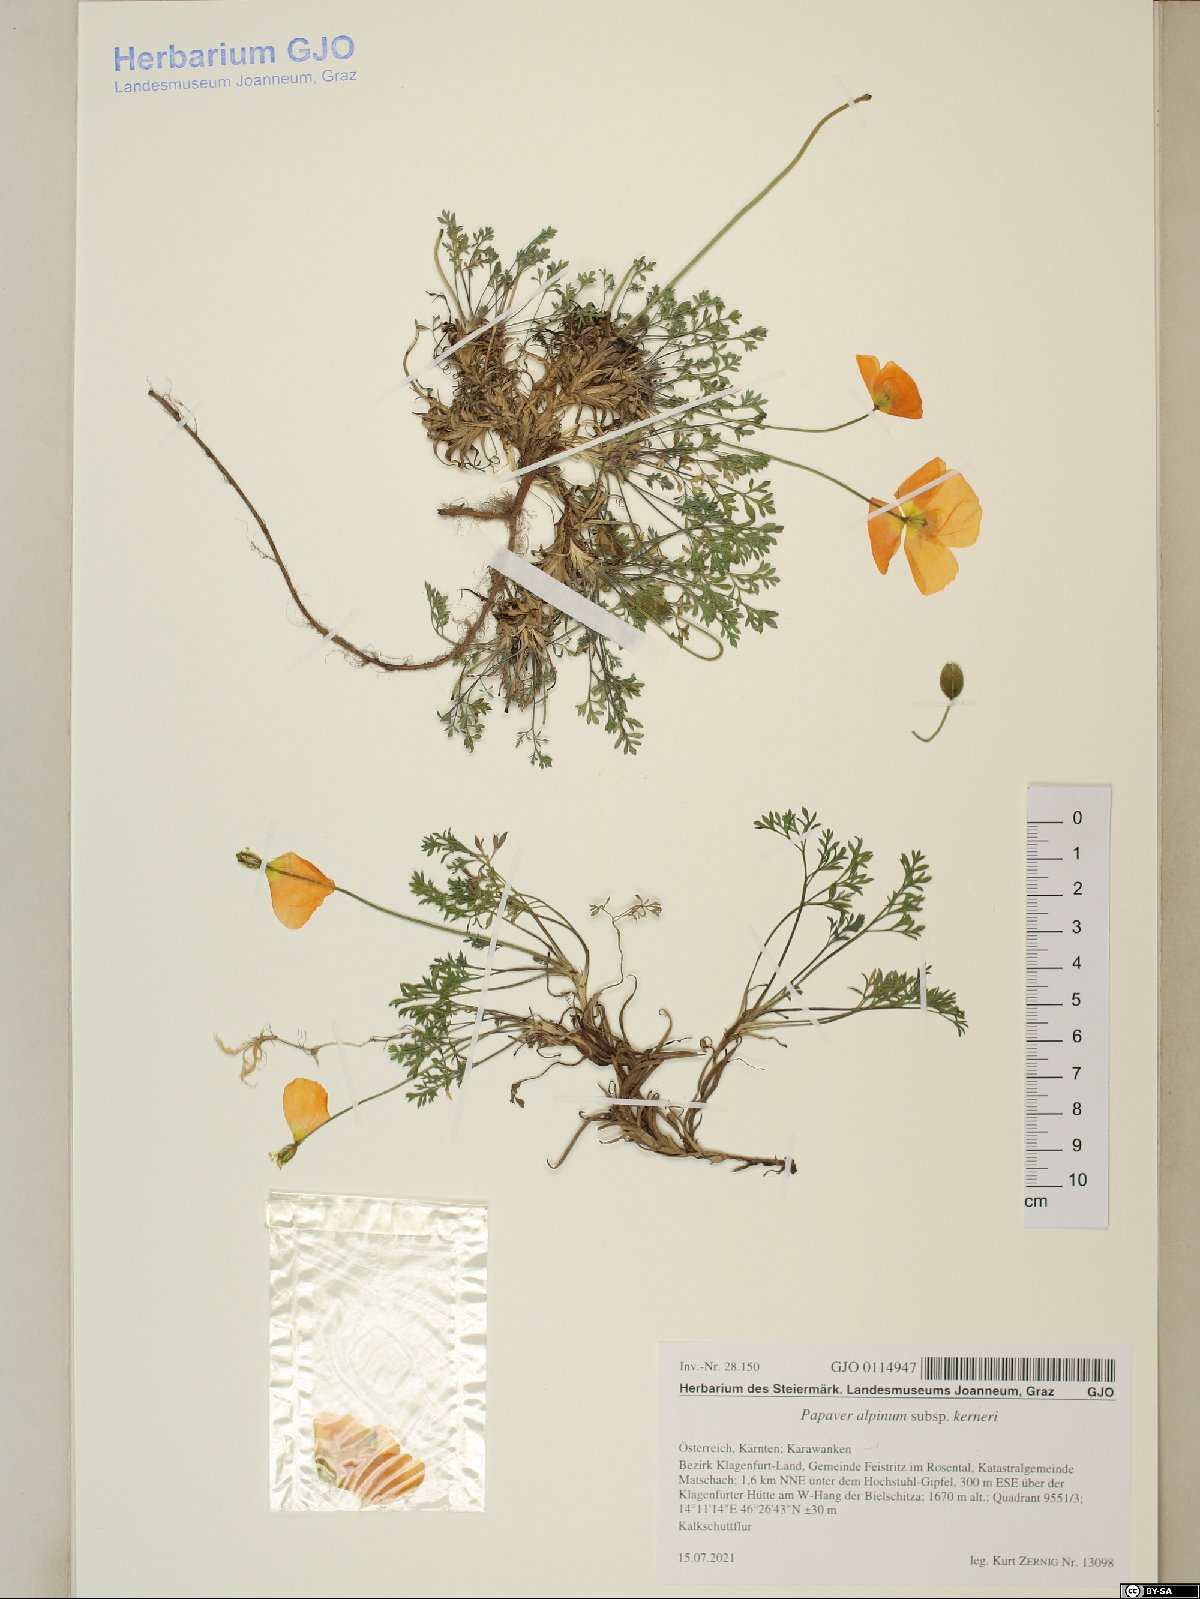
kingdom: Plantae
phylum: Tracheophyta
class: Magnoliopsida
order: Ranunculales
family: Papaveraceae
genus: Papaver
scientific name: Papaver alpinum
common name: Austrian poppy
